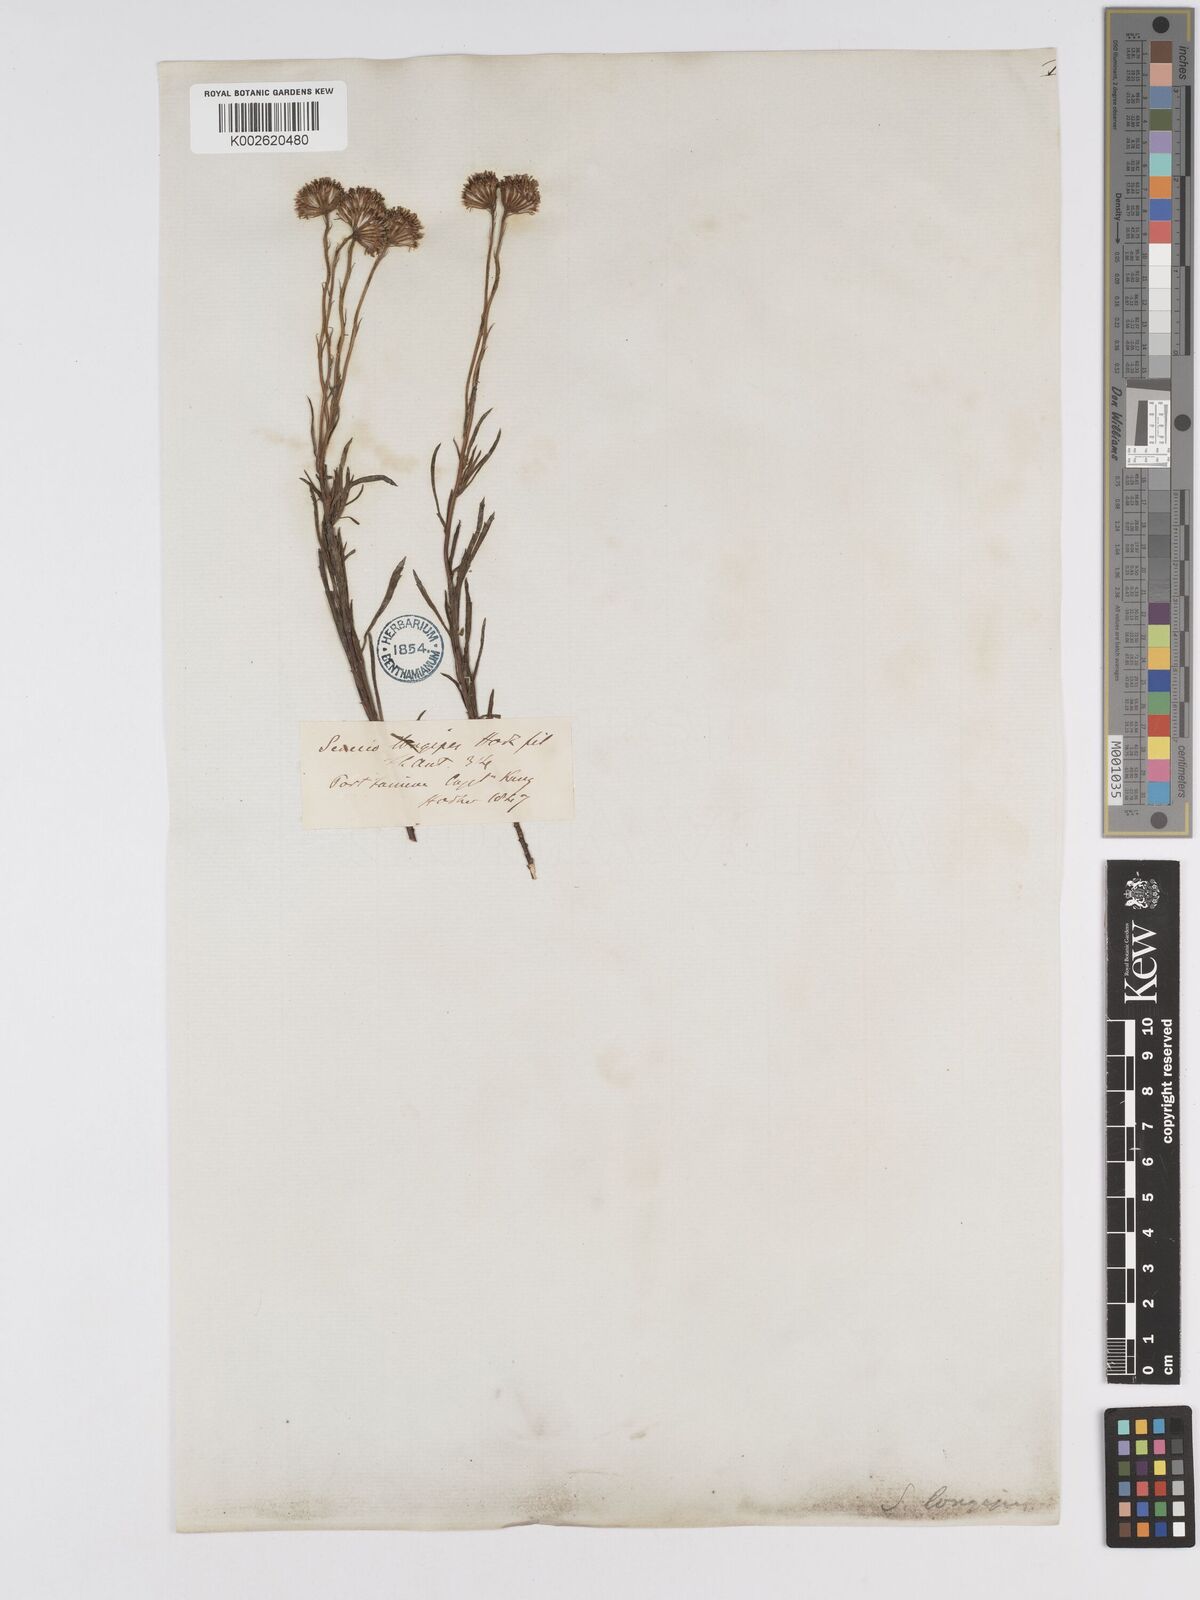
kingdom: Plantae
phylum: Tracheophyta
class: Magnoliopsida
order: Asterales
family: Asteraceae
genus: Senecio
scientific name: Senecio tricuspidatus
